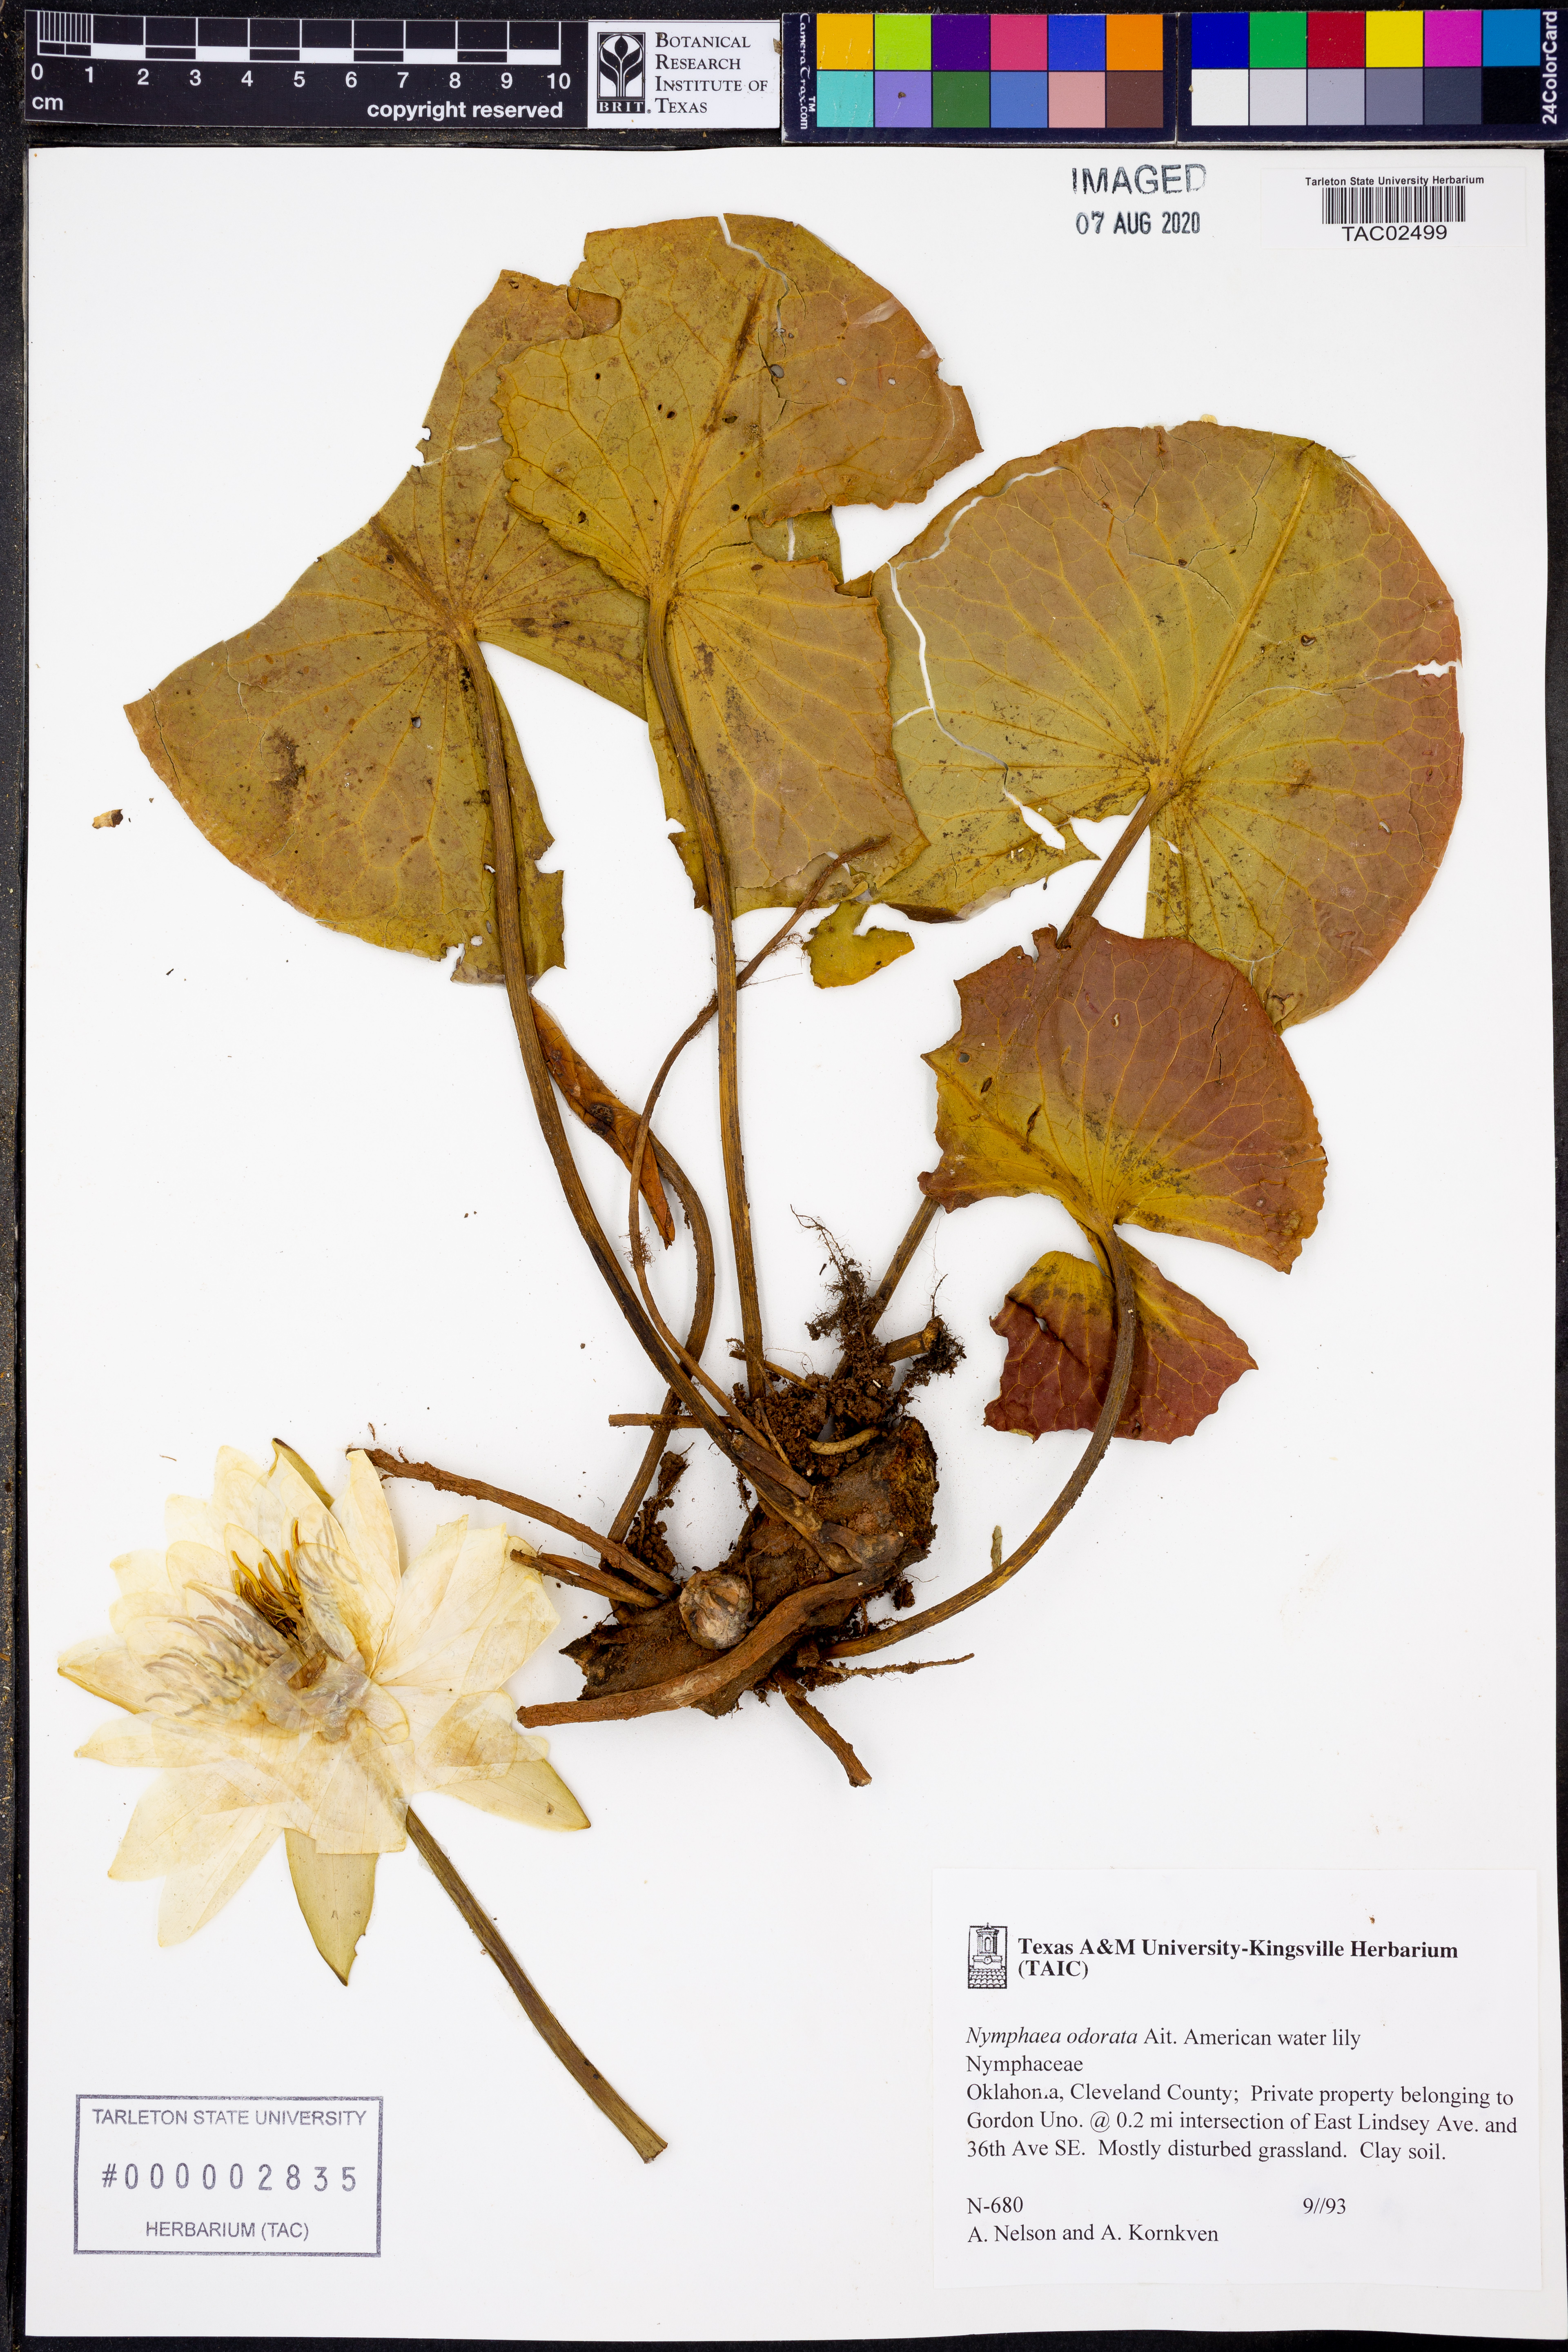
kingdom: Plantae
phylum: Tracheophyta
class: Magnoliopsida
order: Nymphaeales
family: Nymphaeaceae
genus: Nymphaea
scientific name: Nymphaea odorata
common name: Fragrant water-lily
